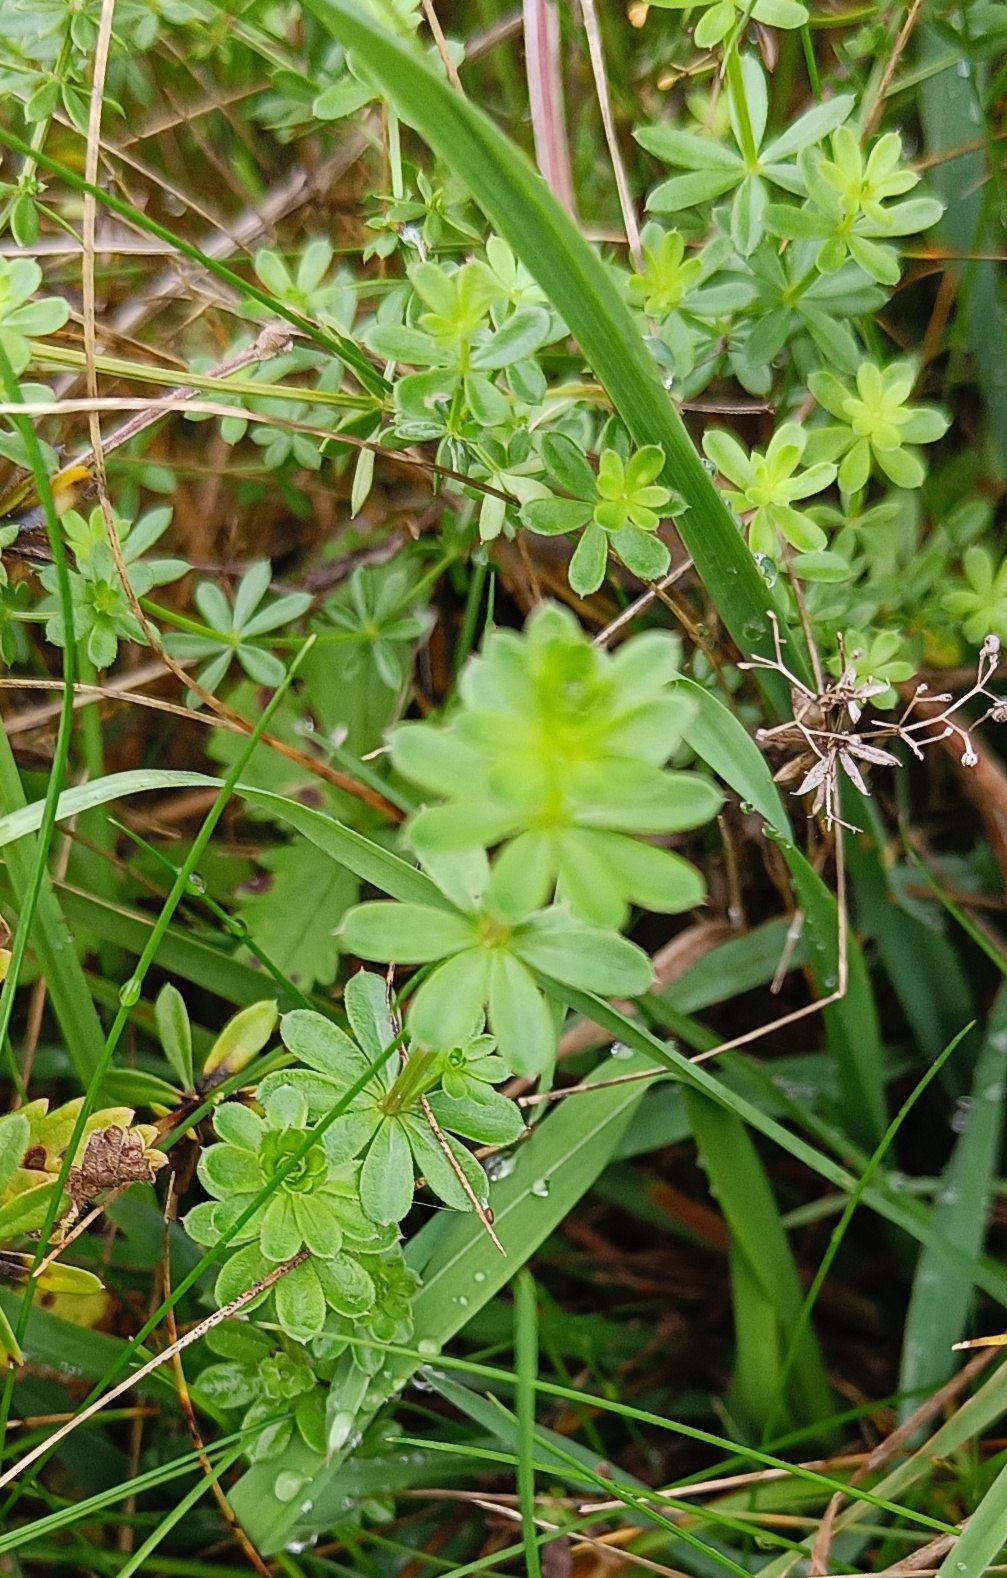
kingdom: Plantae
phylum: Tracheophyta
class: Magnoliopsida
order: Gentianales
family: Rubiaceae
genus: Galium
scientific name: Galium odoratum
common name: Skovmærke
